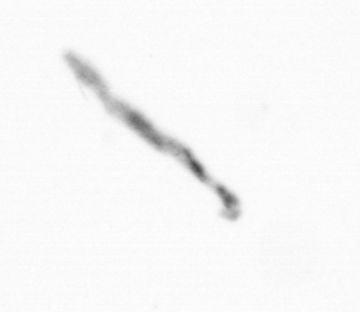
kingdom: Chromista
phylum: Ochrophyta
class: Bacillariophyceae
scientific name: Bacillariophyceae
